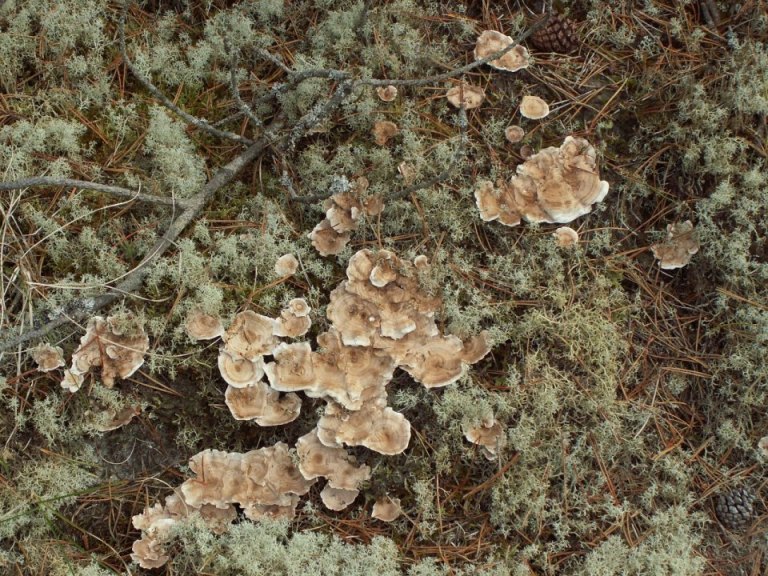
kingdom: Fungi
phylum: Basidiomycota
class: Agaricomycetes
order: Thelephorales
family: Thelephoraceae
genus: Phellodon
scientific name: Phellodon tomentosus
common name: tragtformet duftpigsvamp
